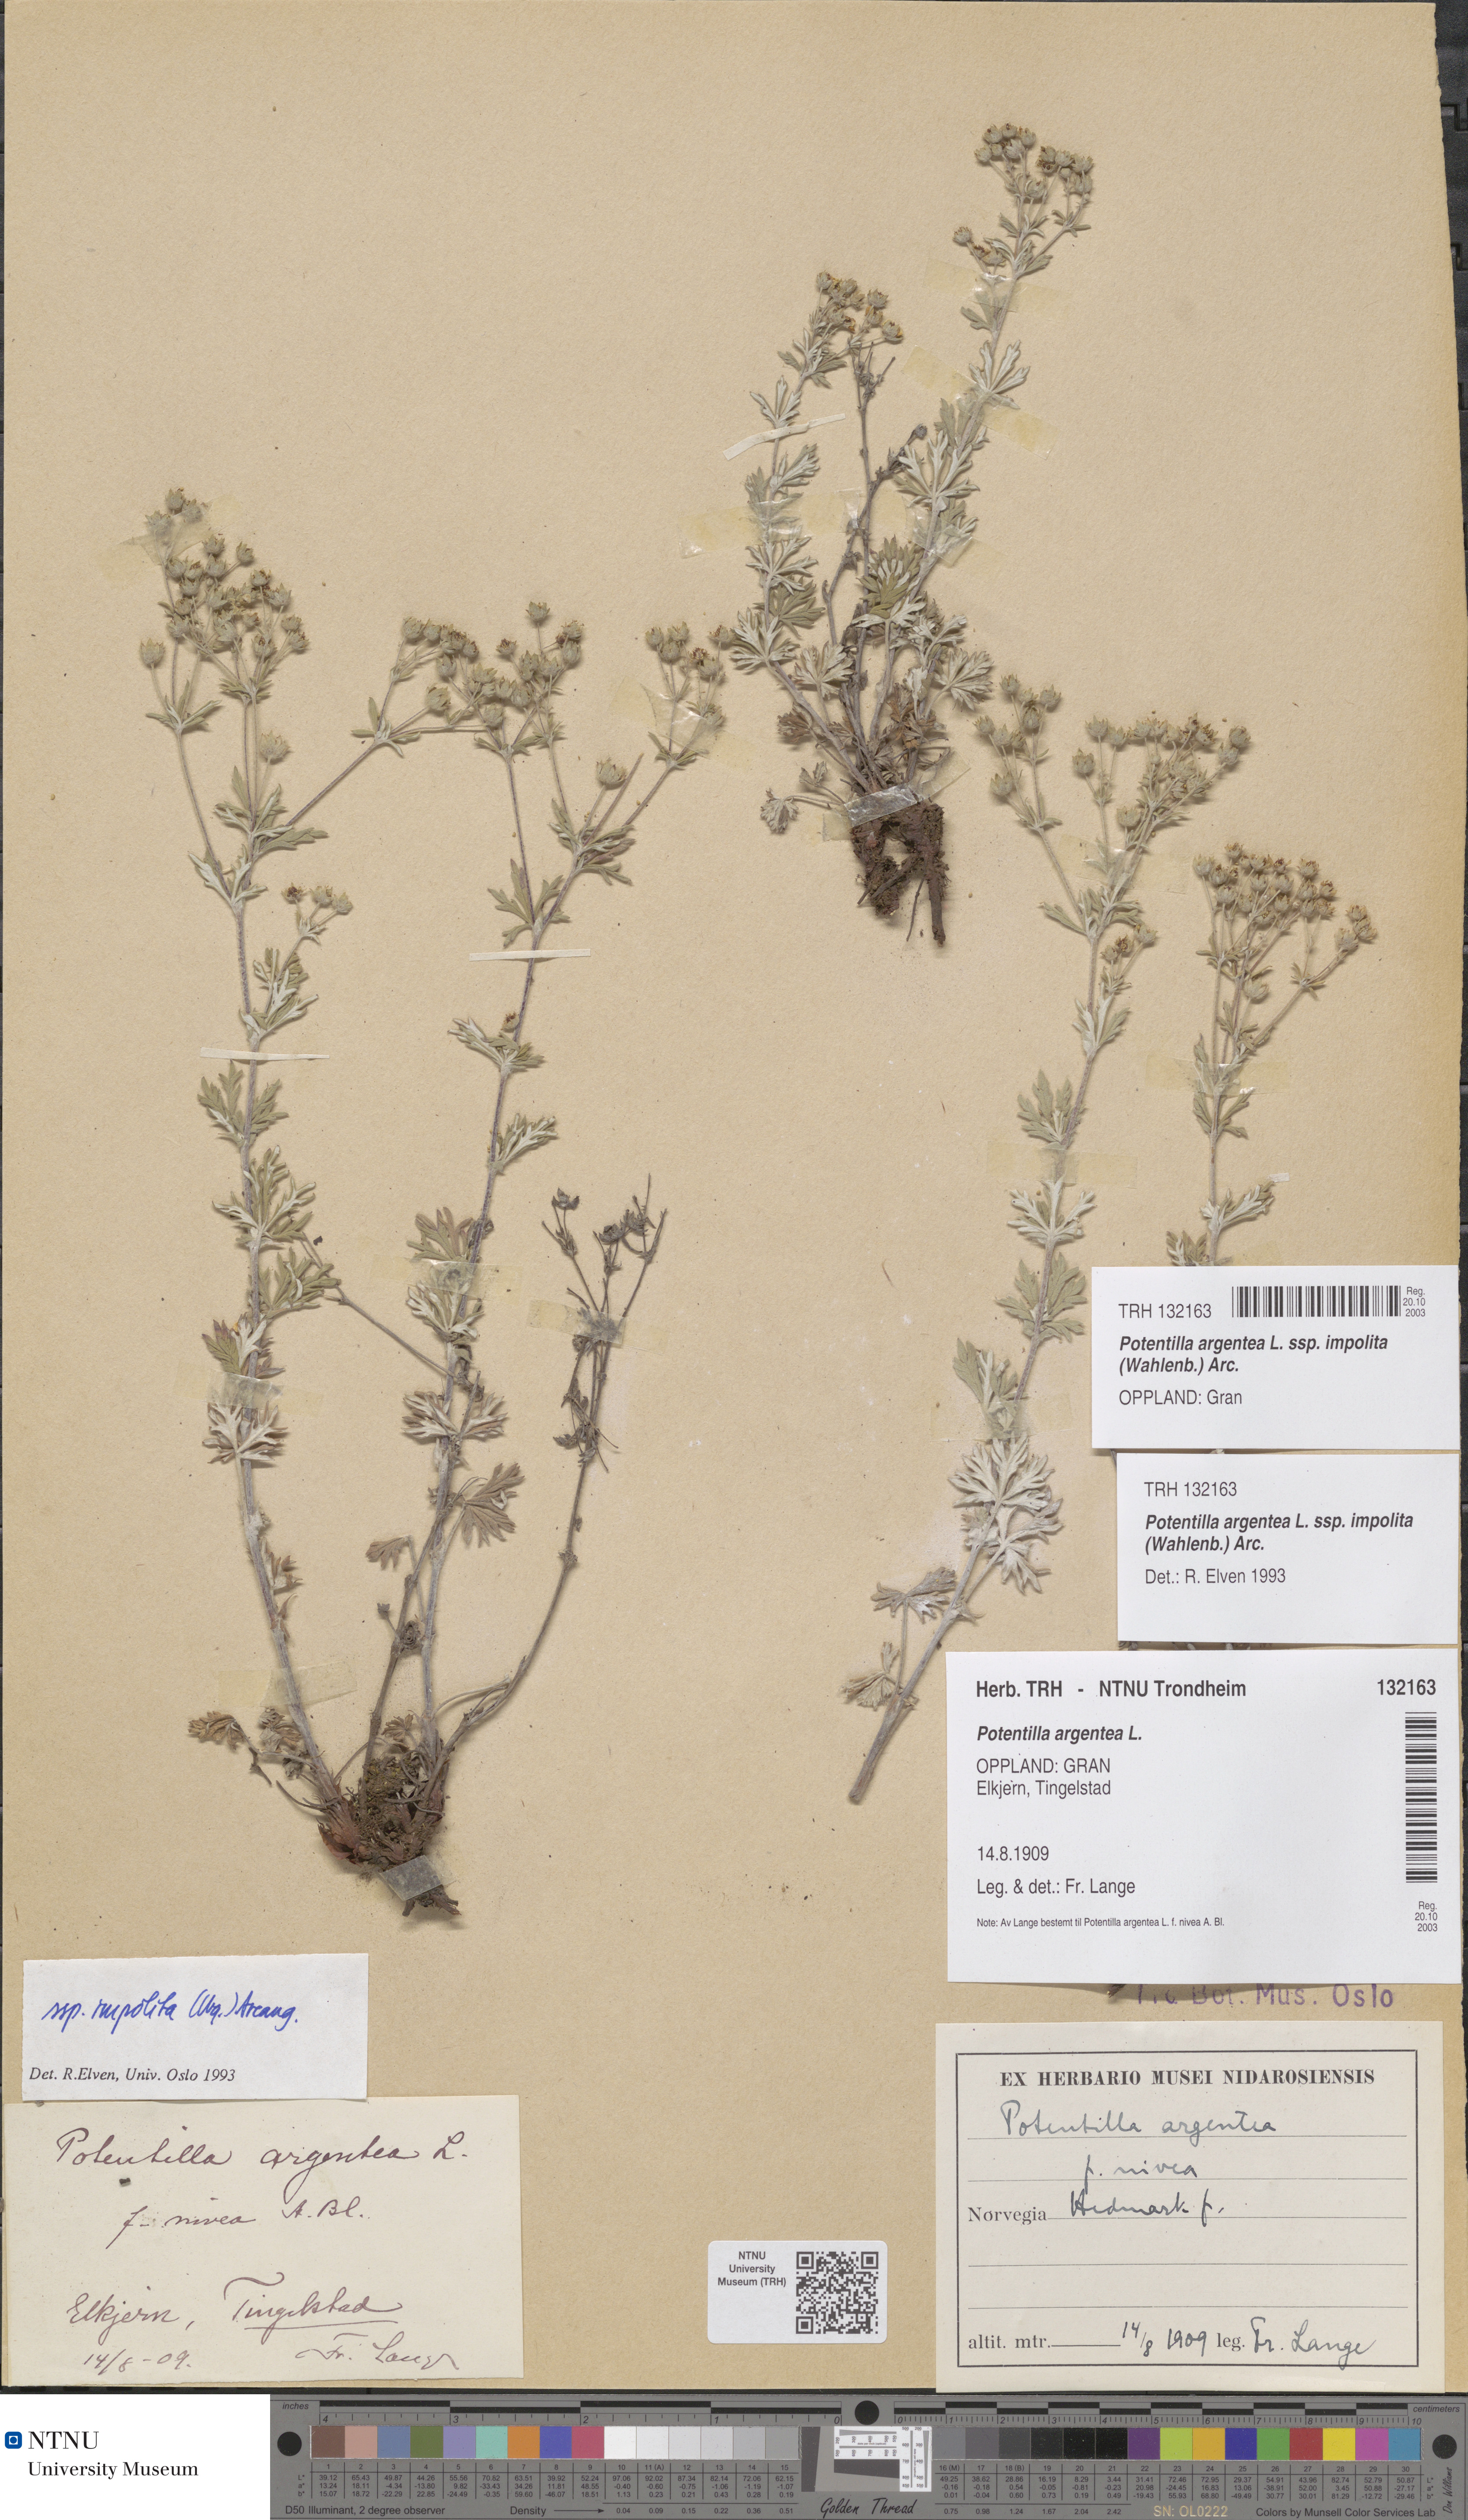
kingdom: Plantae
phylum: Tracheophyta
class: Magnoliopsida
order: Rosales
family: Rosaceae
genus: Potentilla
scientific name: Potentilla neglecta
